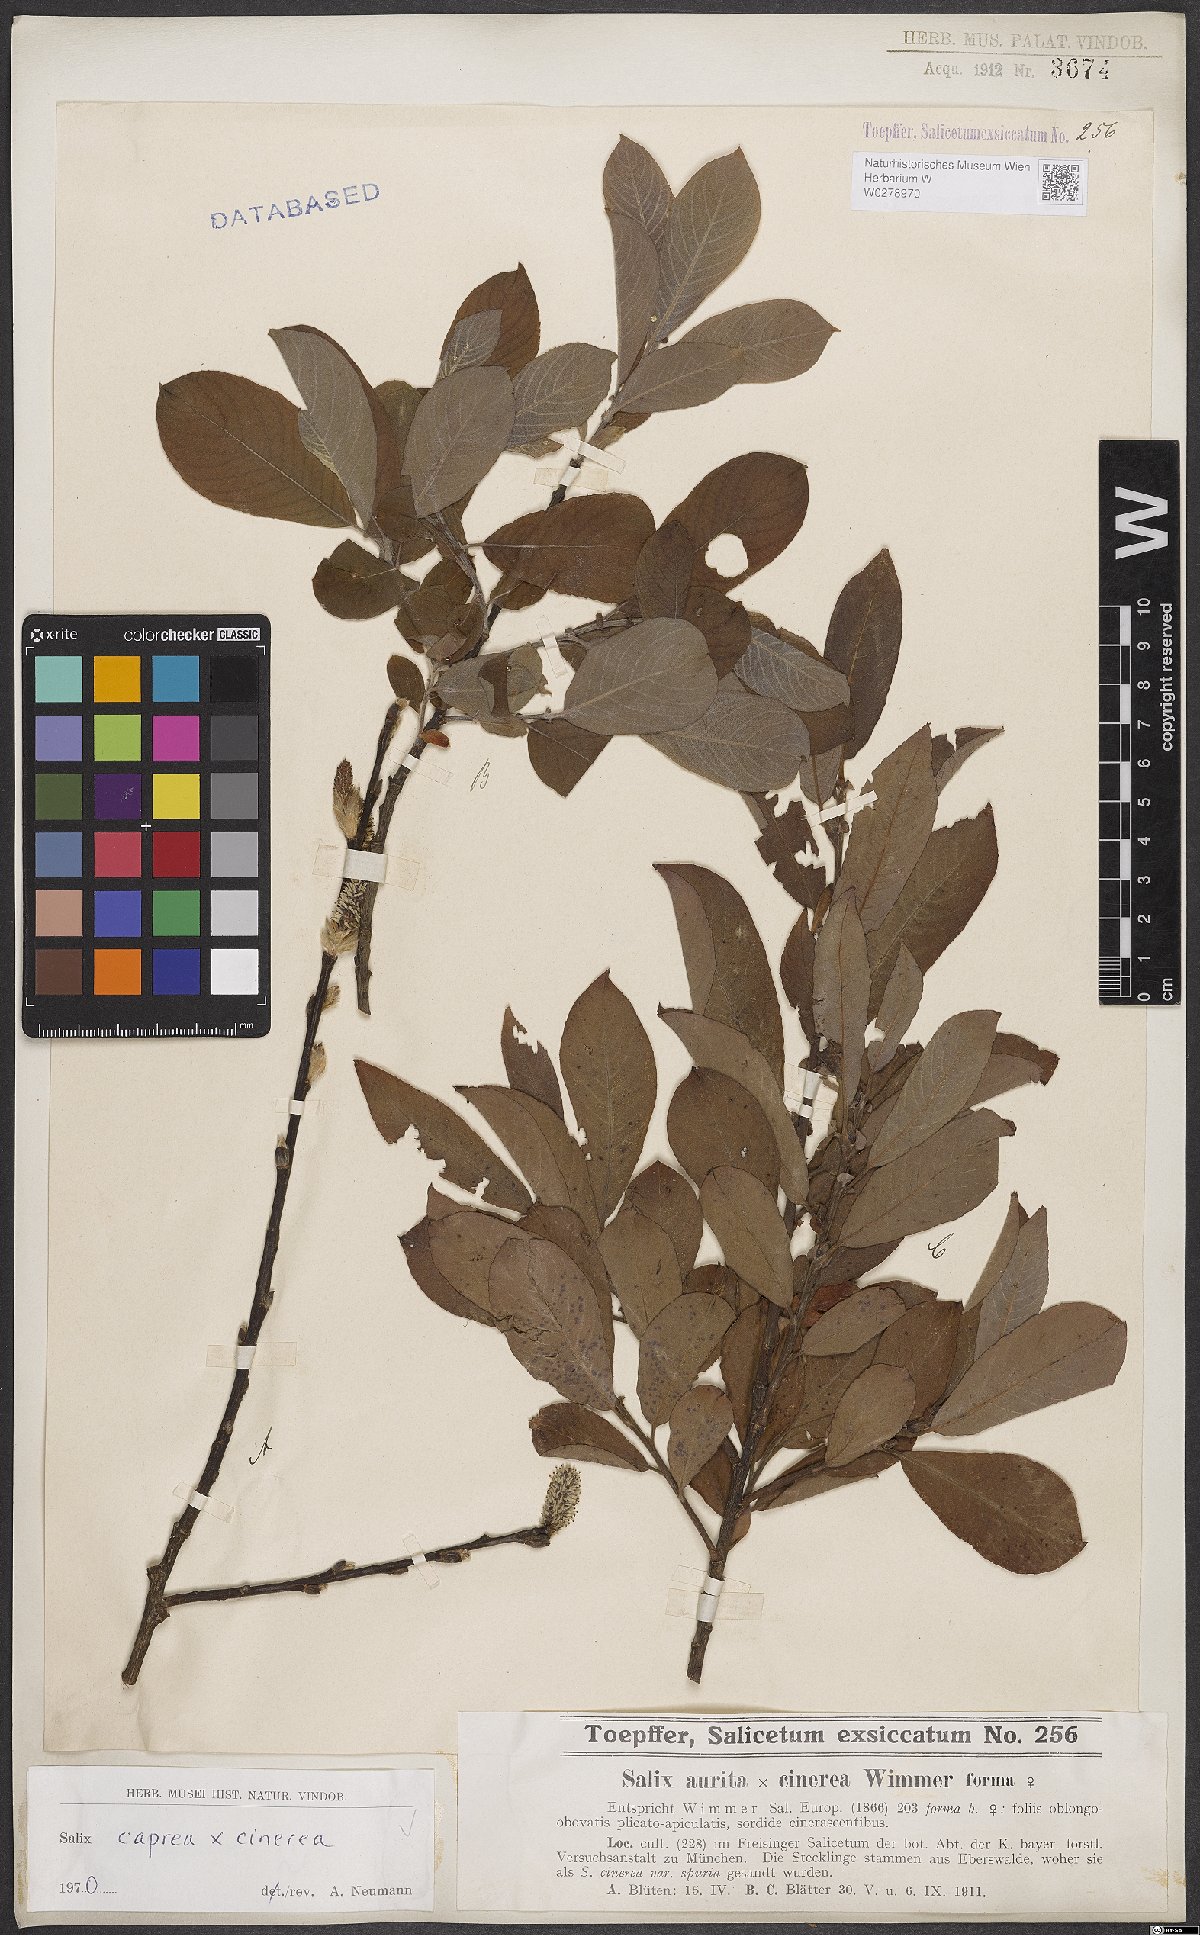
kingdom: Plantae
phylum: Tracheophyta
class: Magnoliopsida
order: Malpighiales
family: Salicaceae
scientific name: Salicaceae
